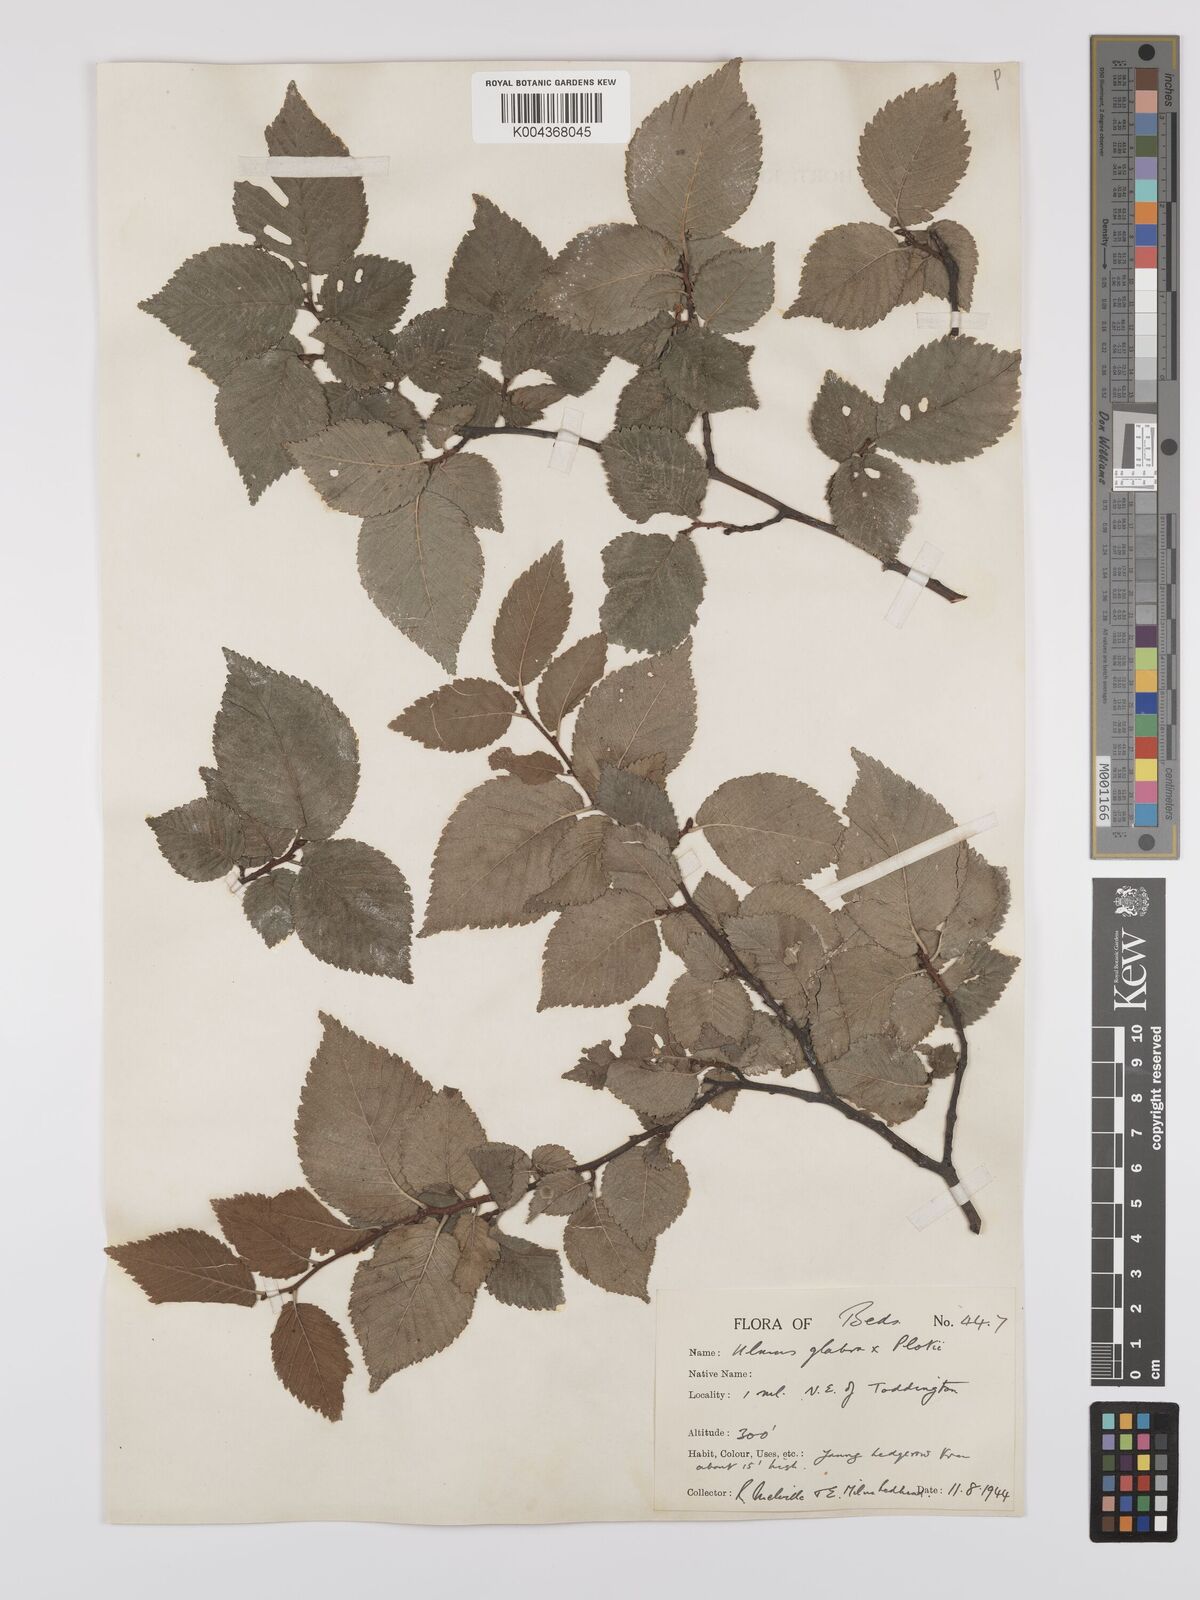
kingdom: Plantae
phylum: Tracheophyta
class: Magnoliopsida
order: Rosales
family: Ulmaceae
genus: Ulmus
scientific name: Ulmus
